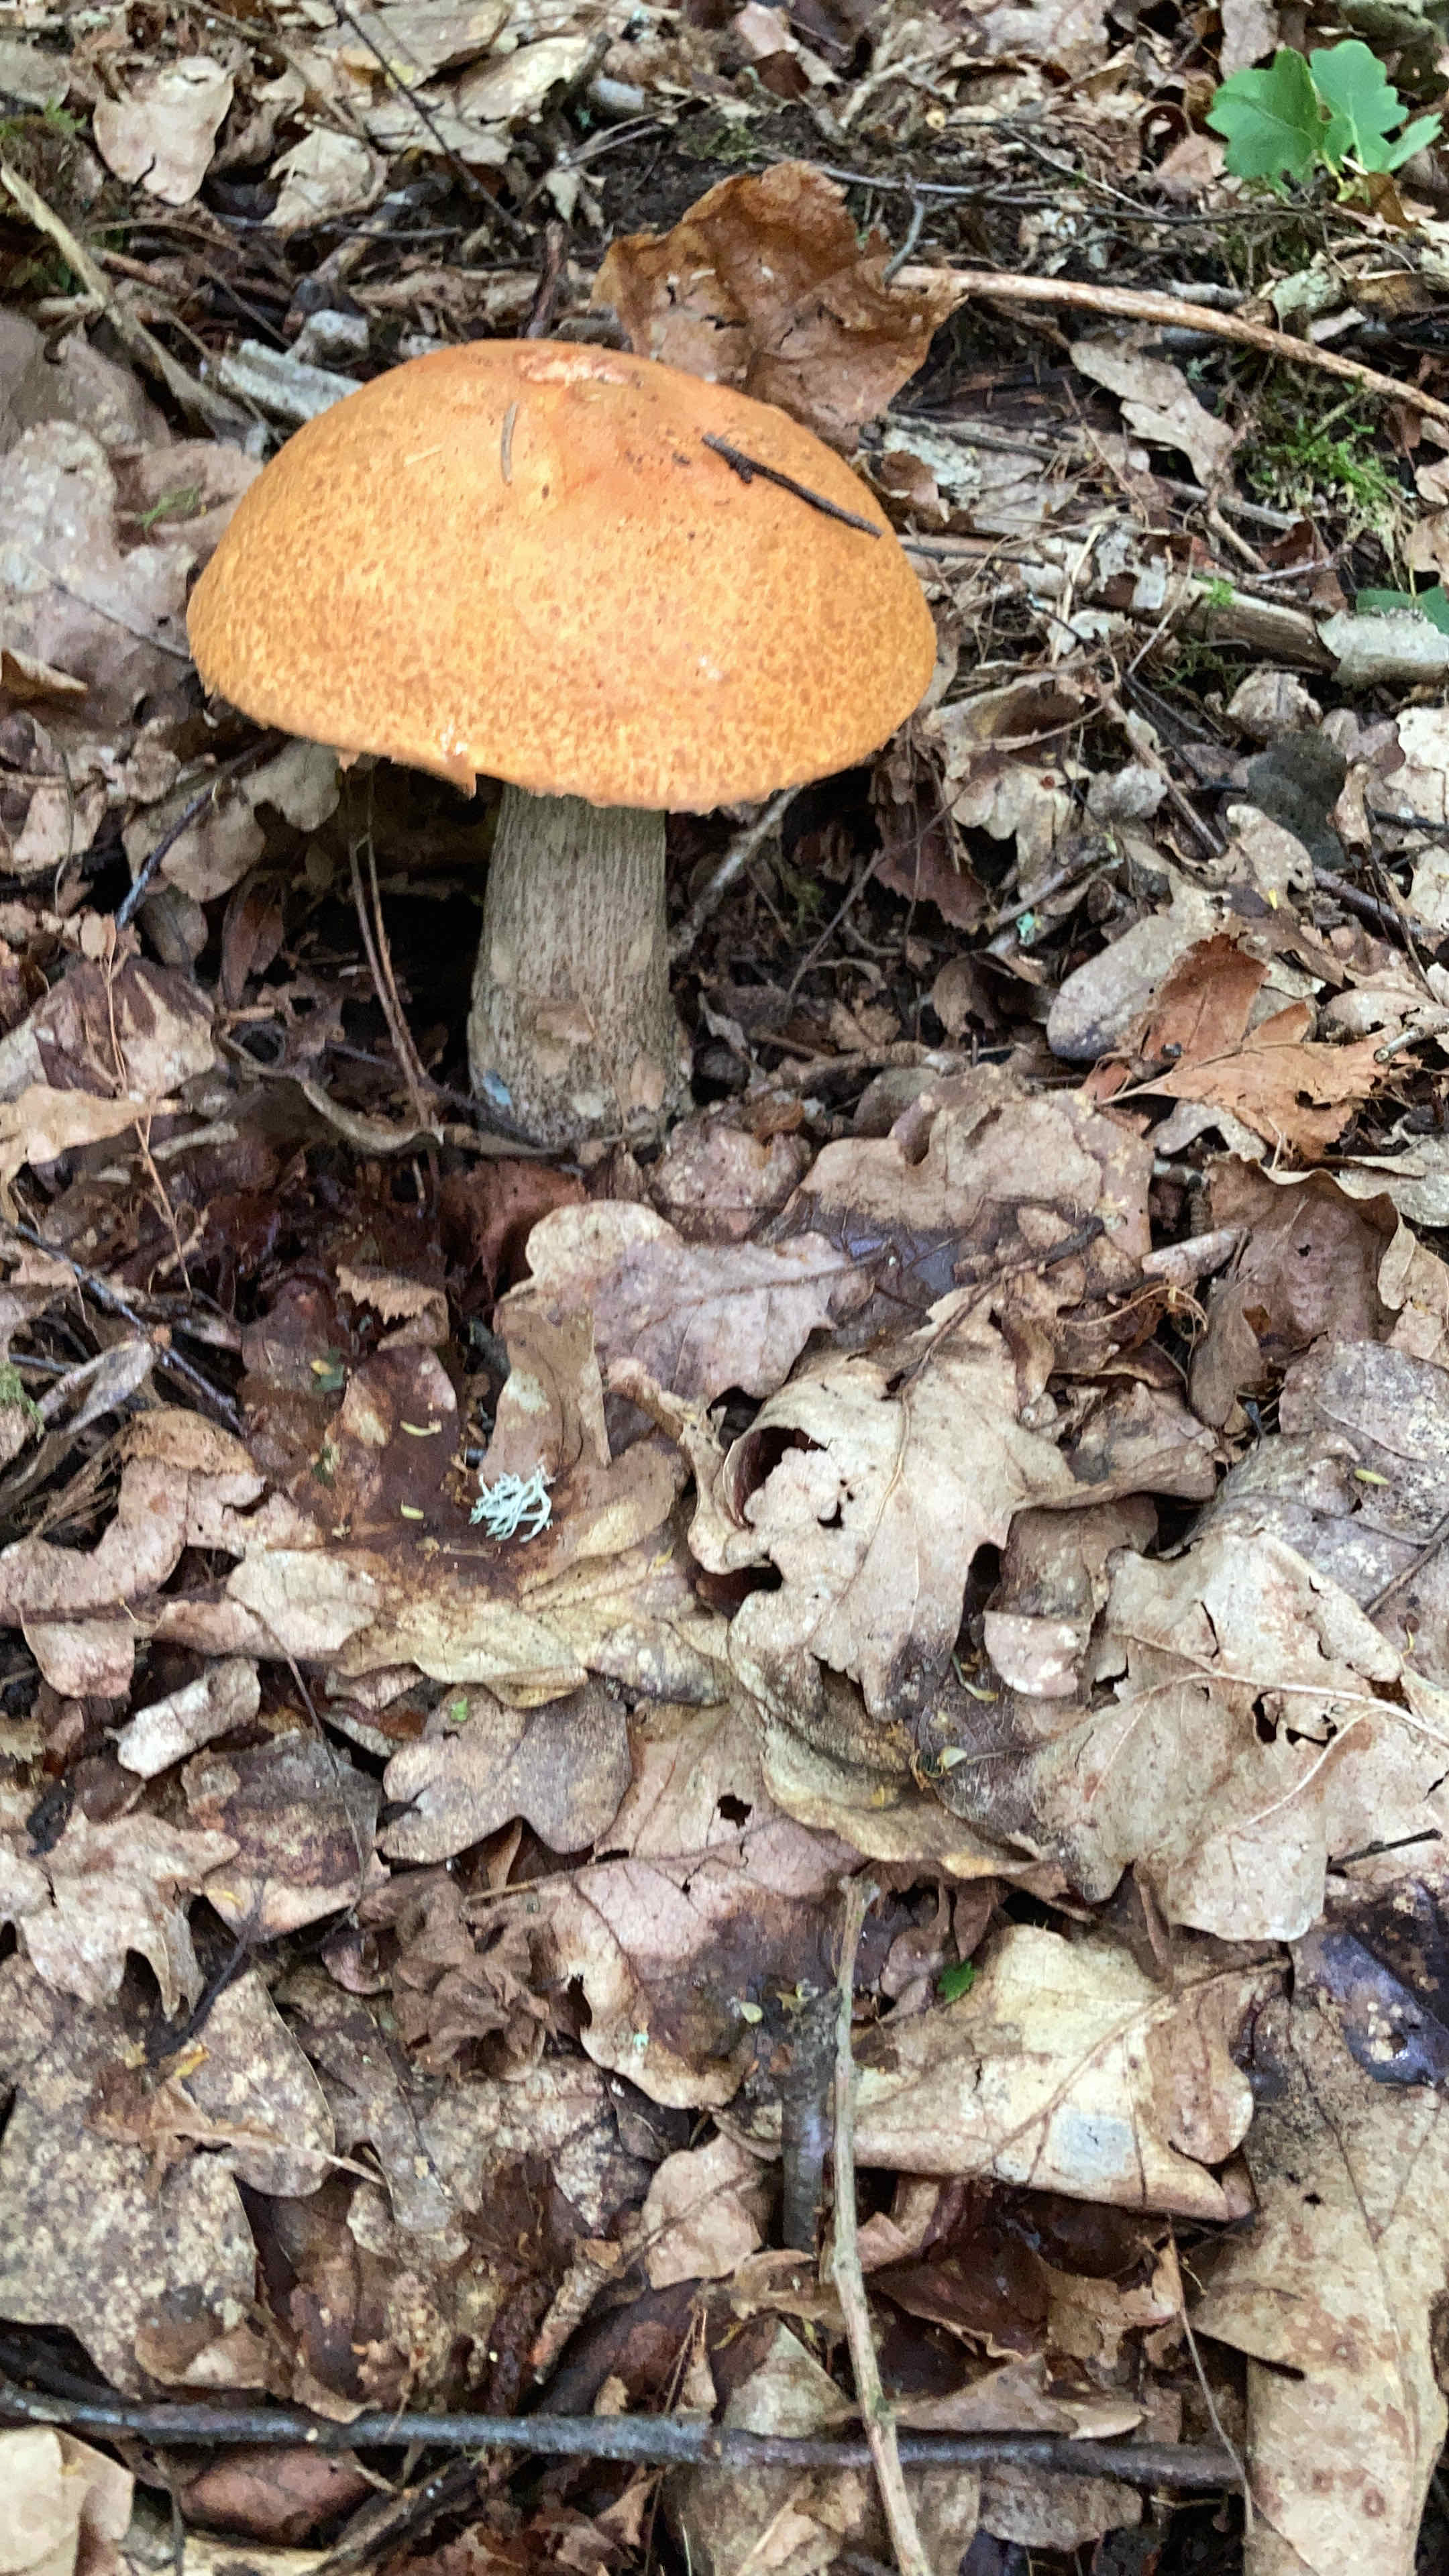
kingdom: Fungi
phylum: Basidiomycota
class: Agaricomycetes
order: Boletales
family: Boletaceae
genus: Leccinum
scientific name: Leccinum
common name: skælrørhat
